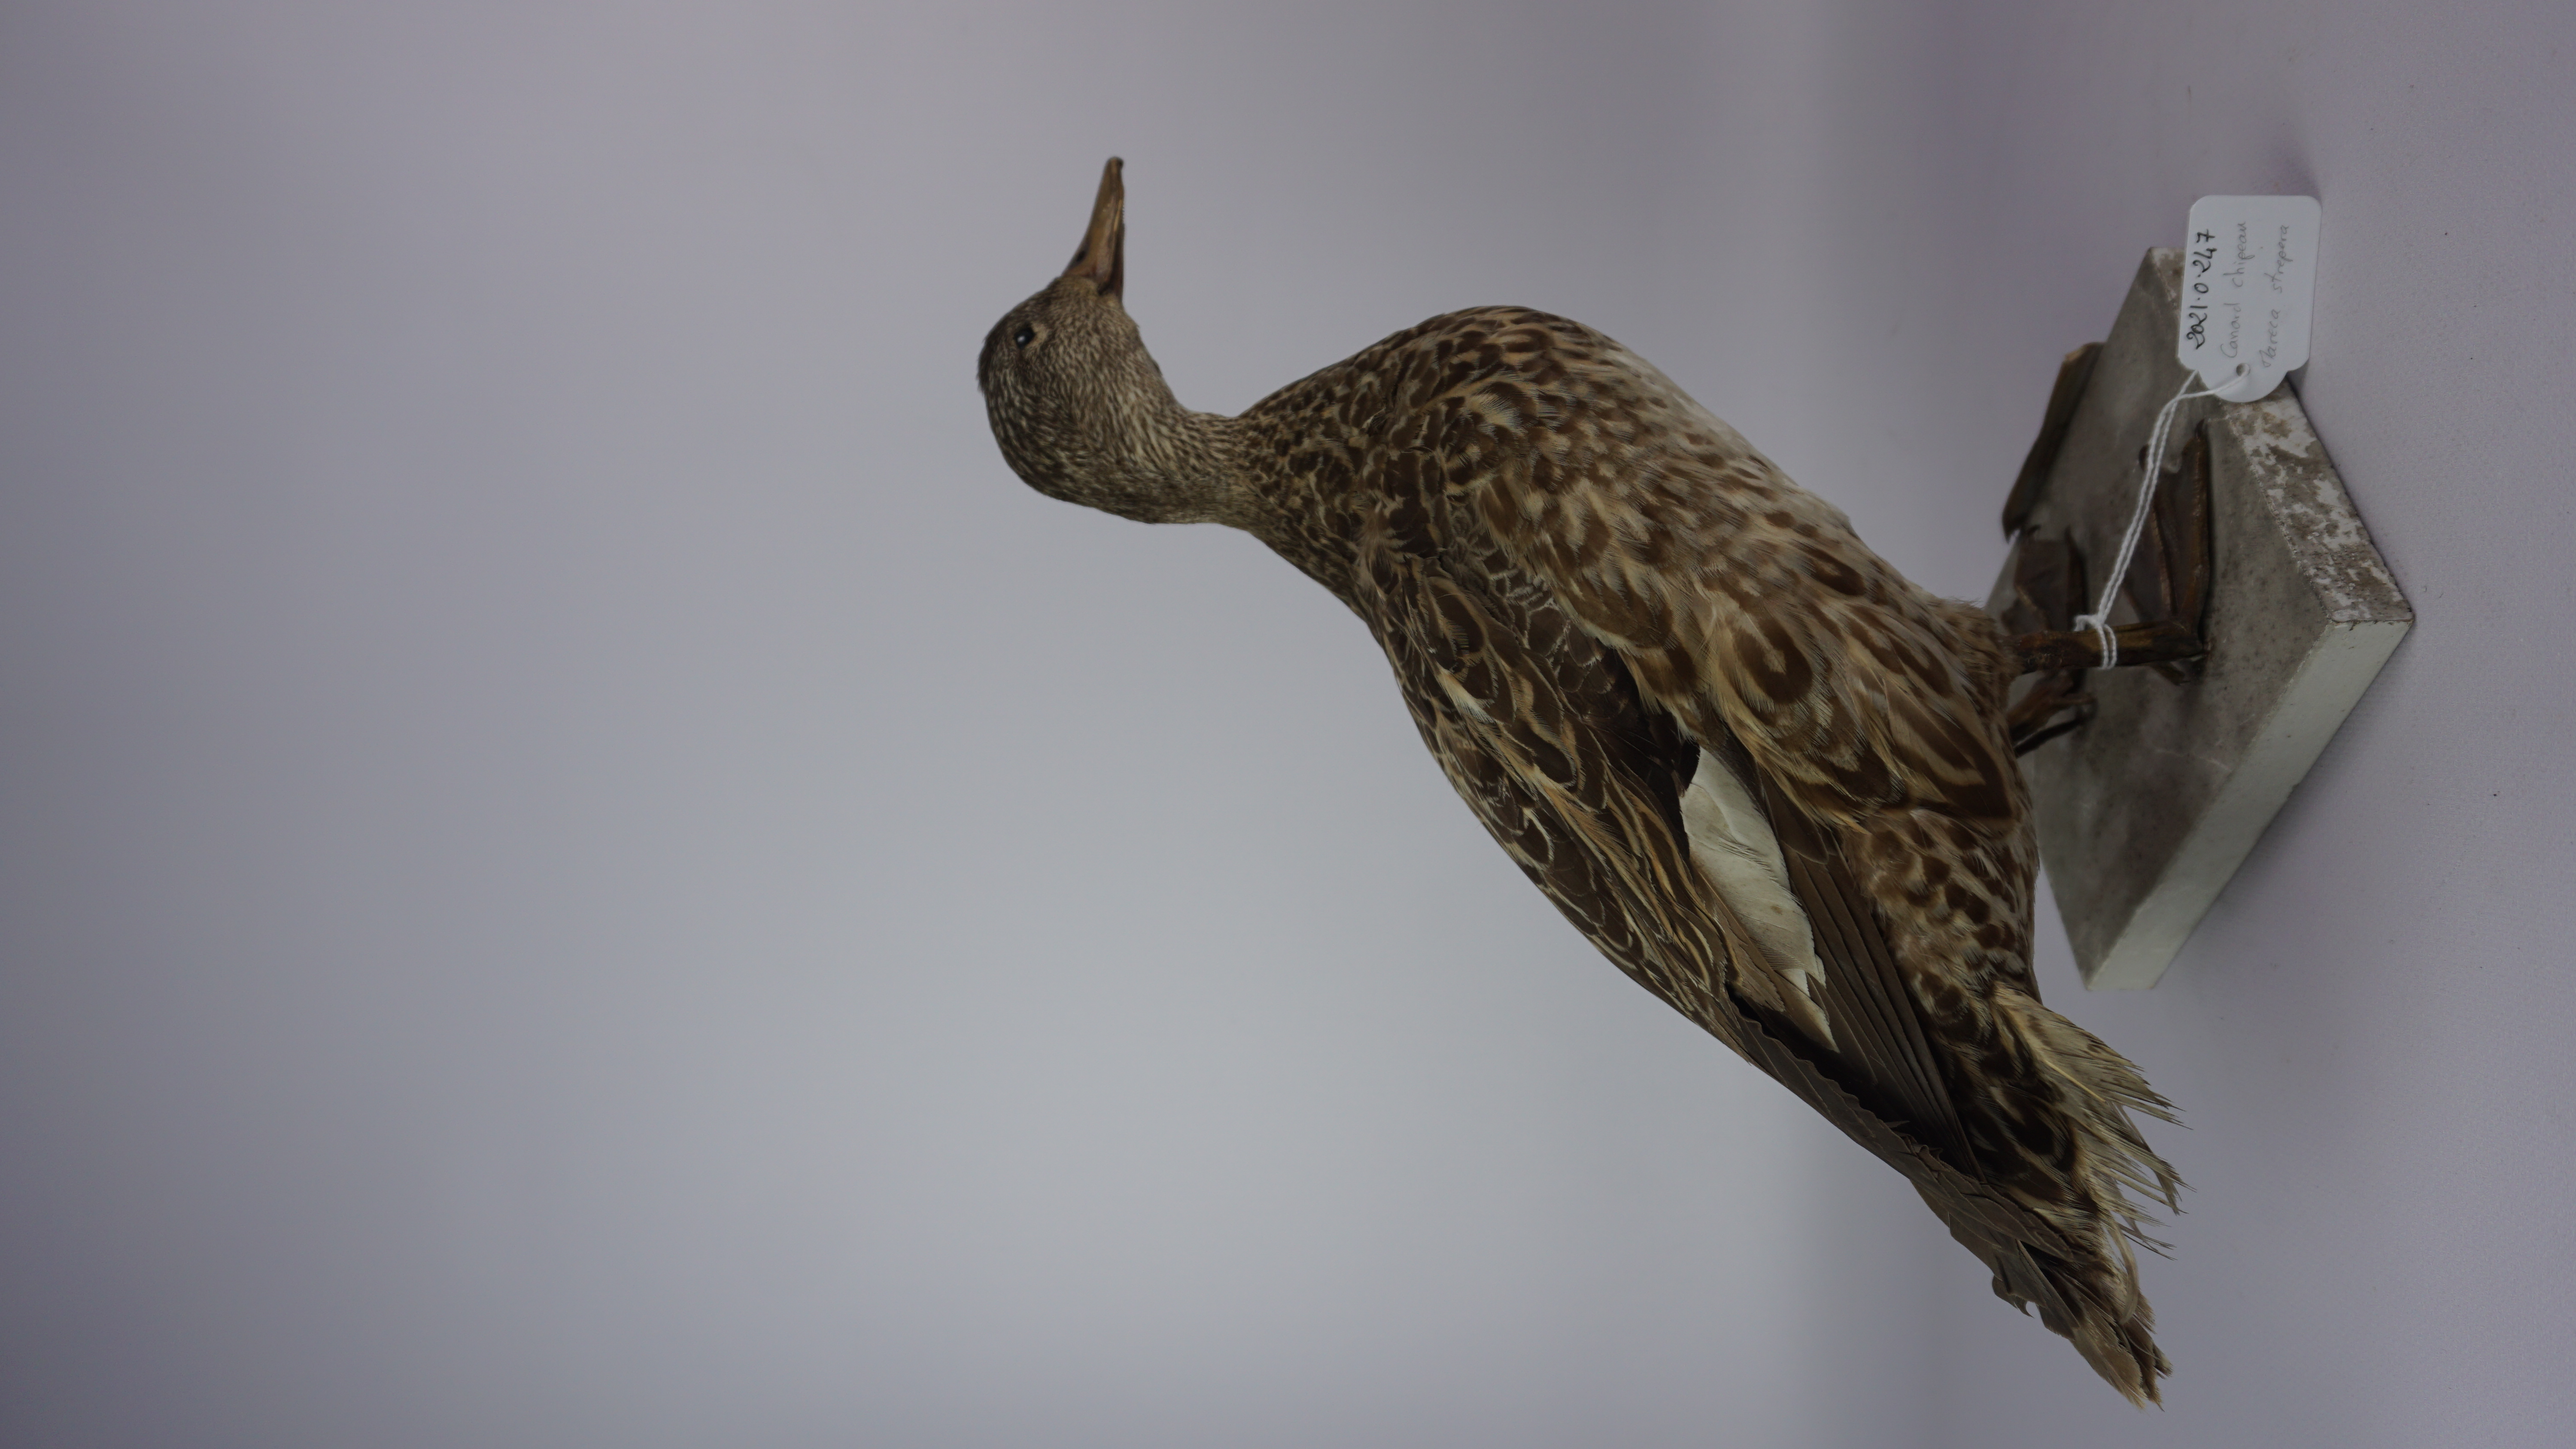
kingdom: Animalia
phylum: Chordata
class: Aves
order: Anseriformes
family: Anatidae
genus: Mareca
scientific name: Mareca strepera
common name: Gadwall
